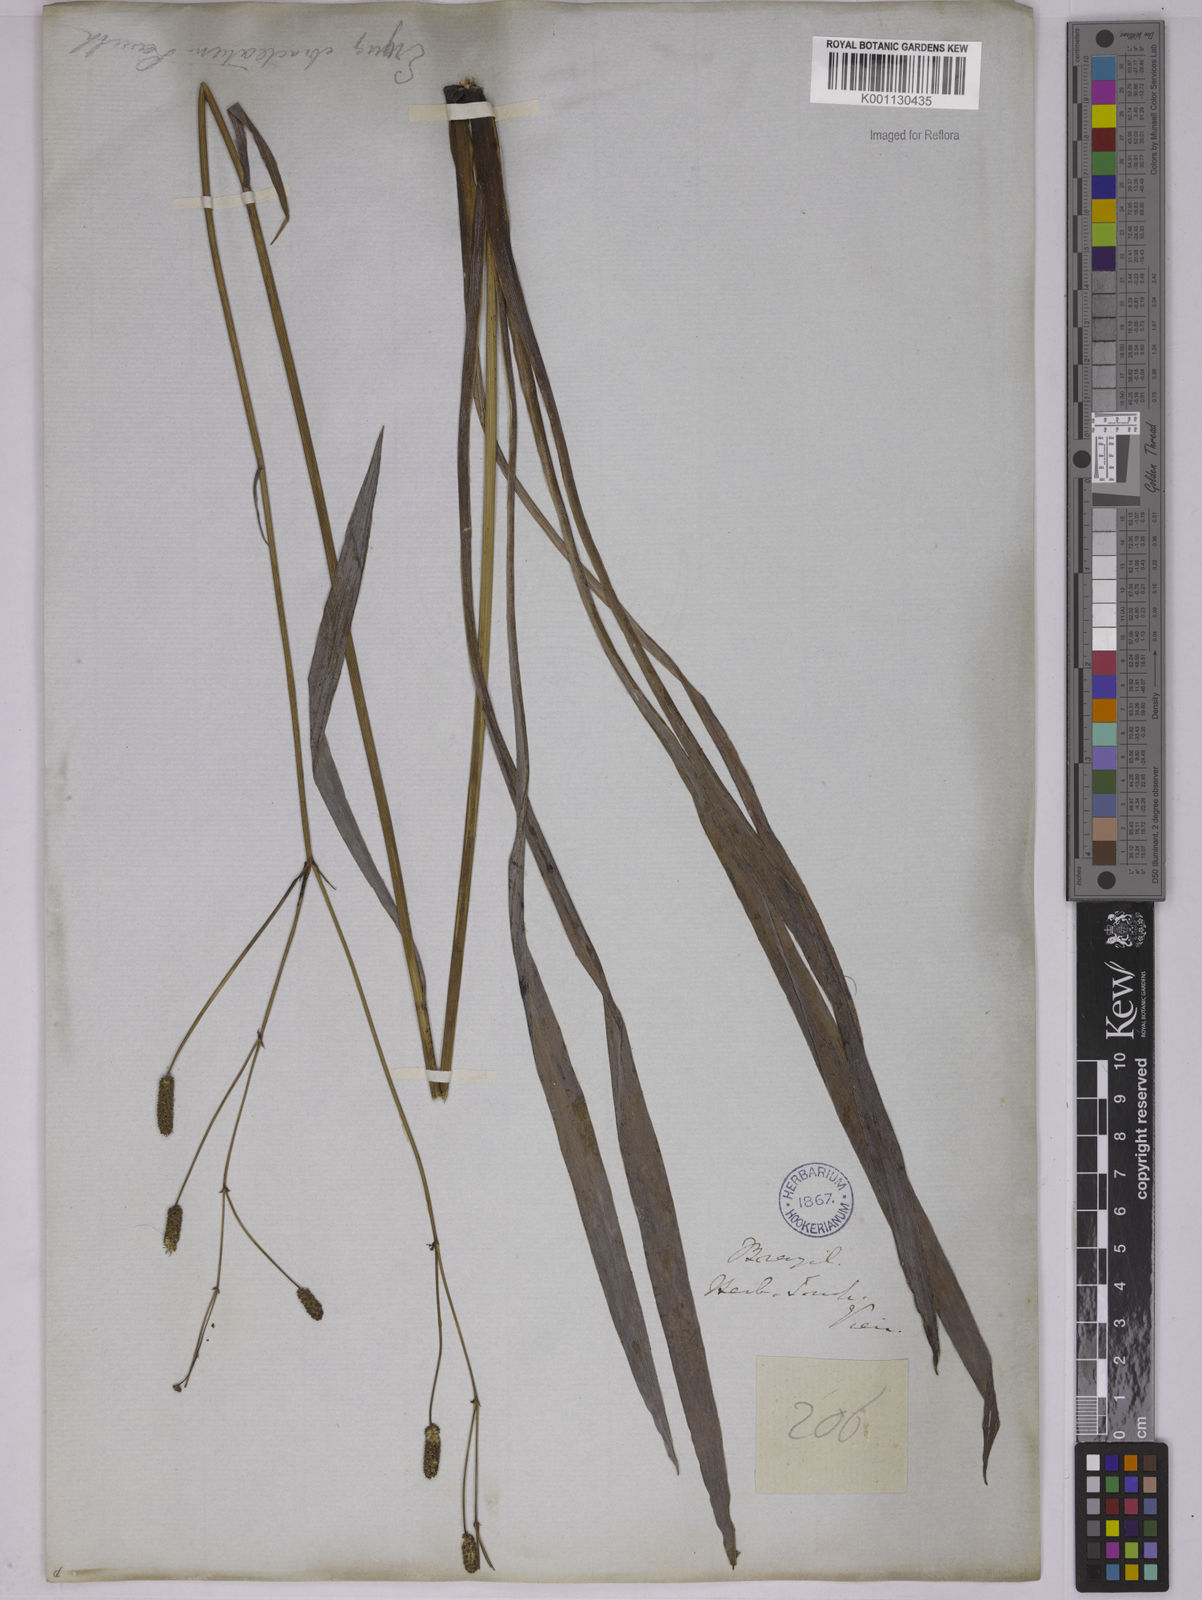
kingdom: Plantae
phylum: Tracheophyta
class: Magnoliopsida
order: Apiales
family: Apiaceae
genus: Eryngium
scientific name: Eryngium ebracteatum
